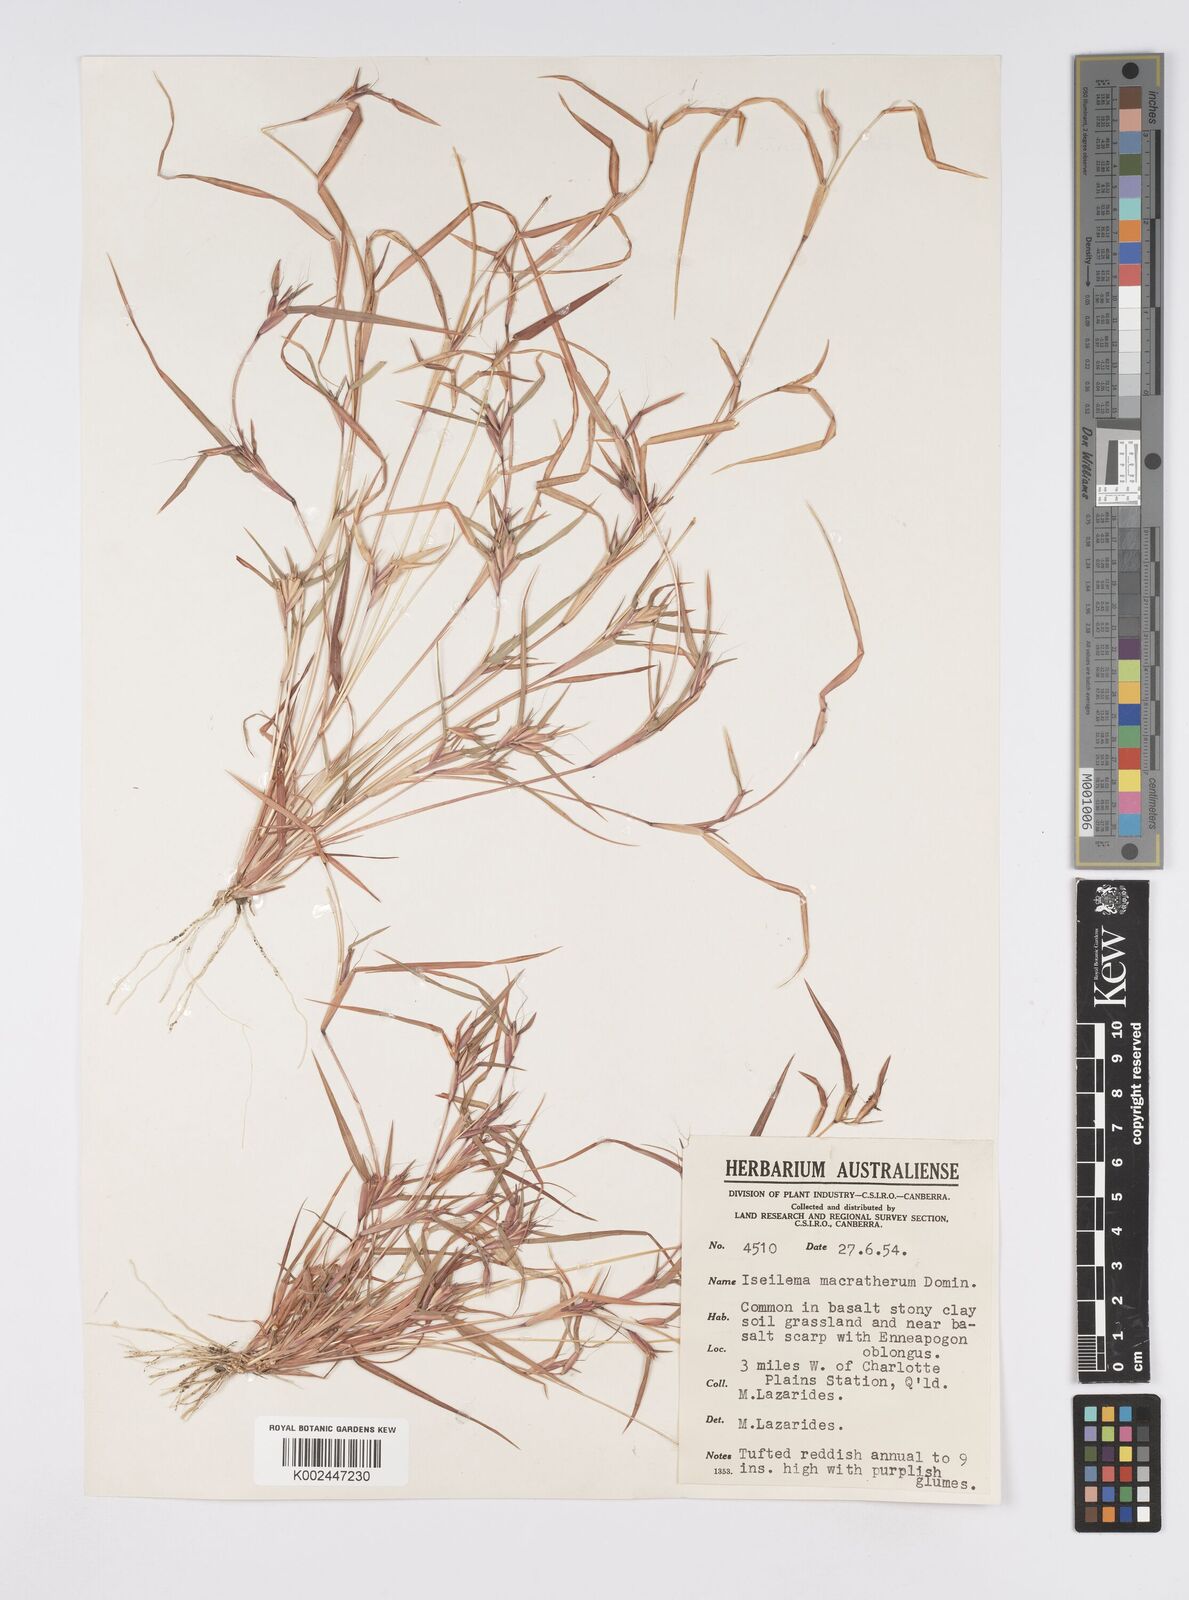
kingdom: Plantae
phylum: Tracheophyta
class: Liliopsida
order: Poales
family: Poaceae
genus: Iseilema
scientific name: Iseilema macratherum
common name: Bull flinders grass
